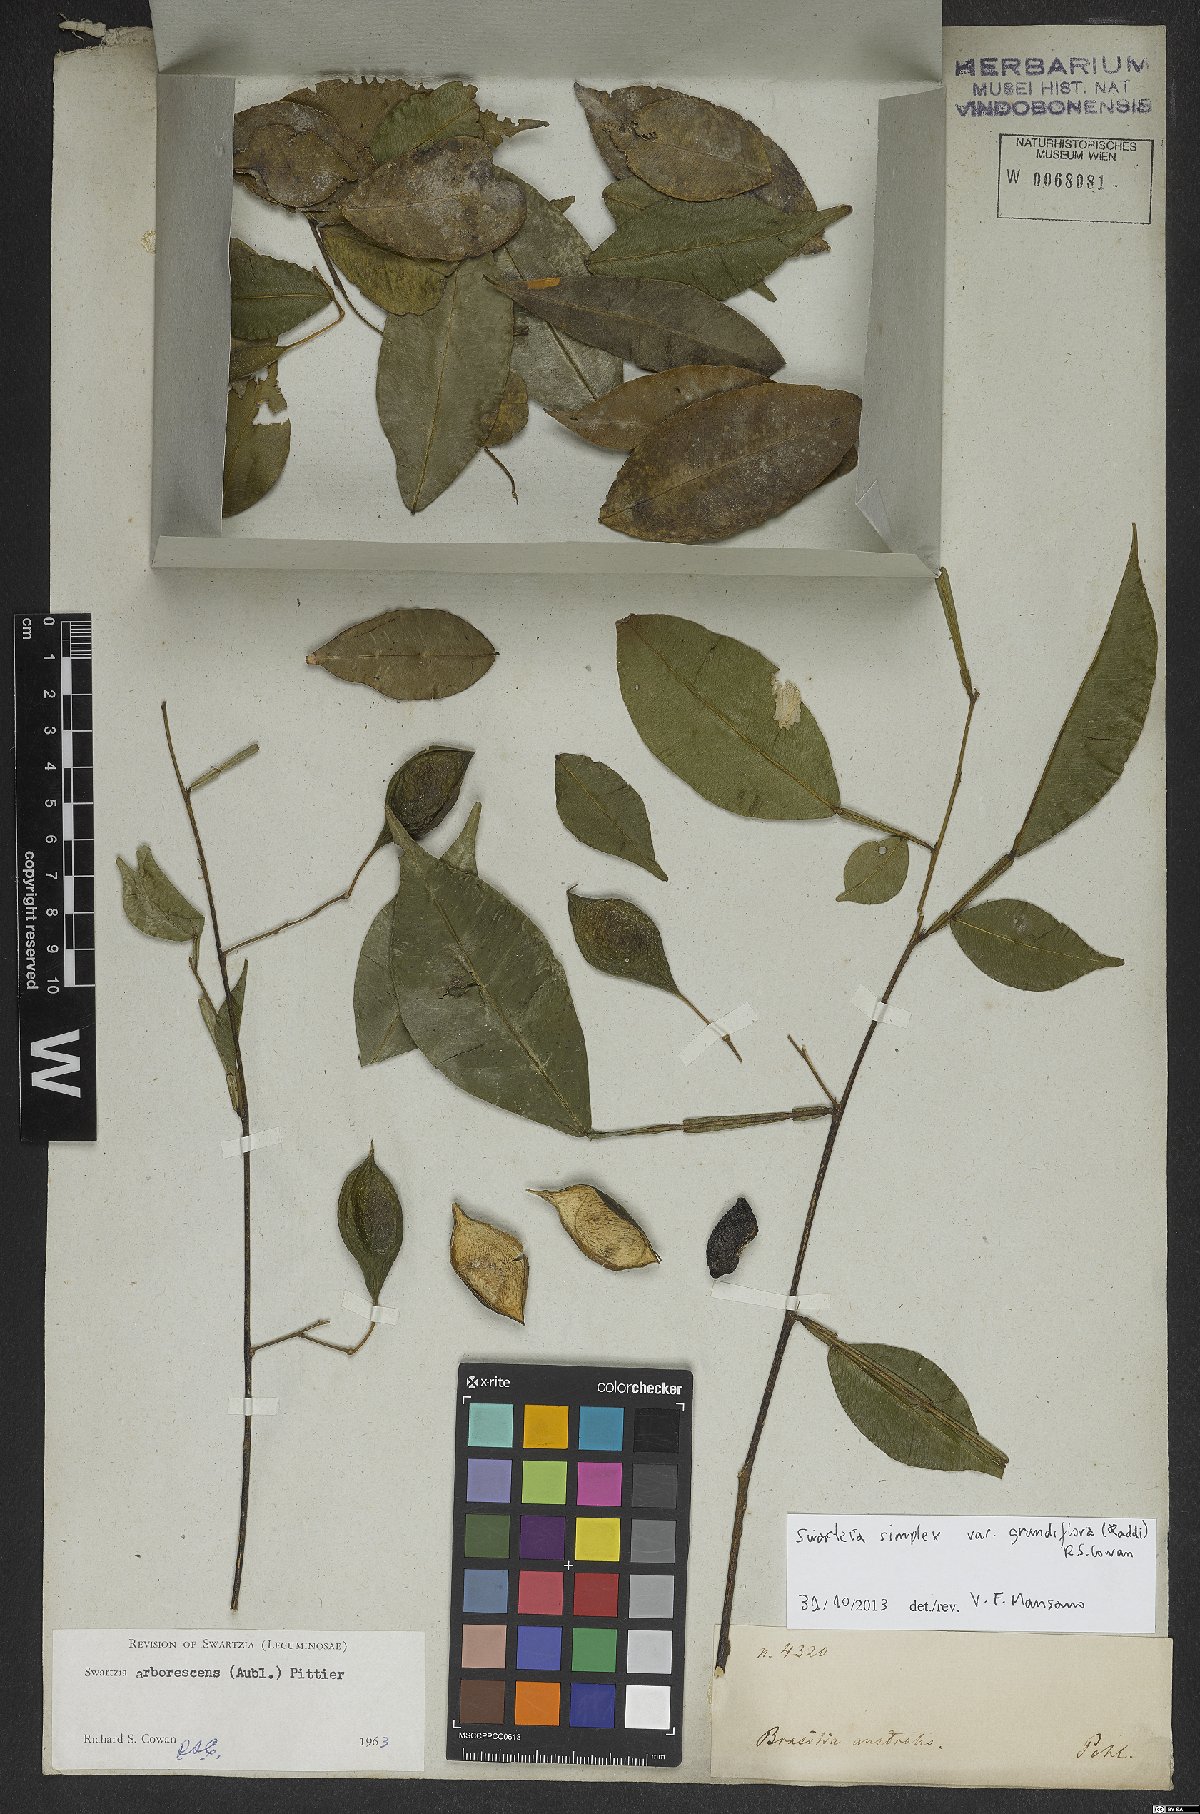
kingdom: Plantae
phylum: Tracheophyta
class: Magnoliopsida
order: Fabales
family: Fabaceae
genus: Swartzia
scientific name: Swartzia simplex
